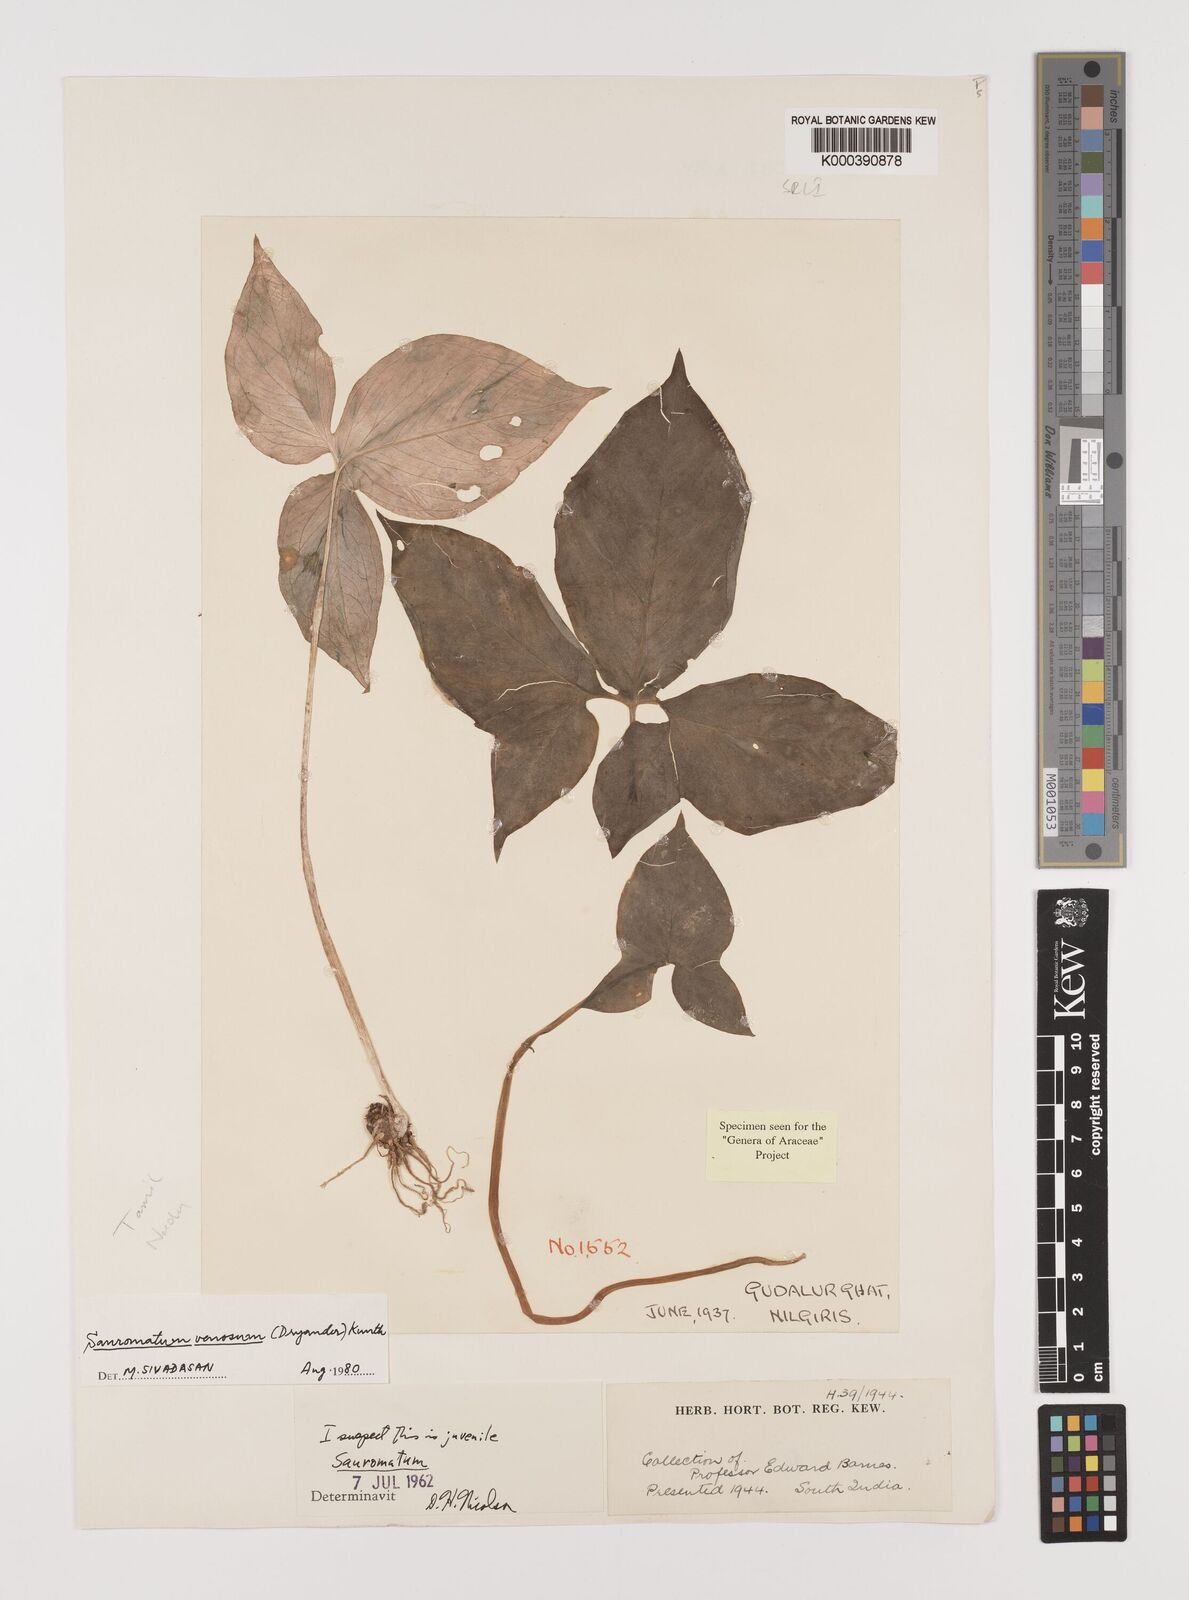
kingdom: Plantae
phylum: Tracheophyta
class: Liliopsida
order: Alismatales
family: Araceae
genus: Sauromatum
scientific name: Sauromatum venosum
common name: Voodoo lily
